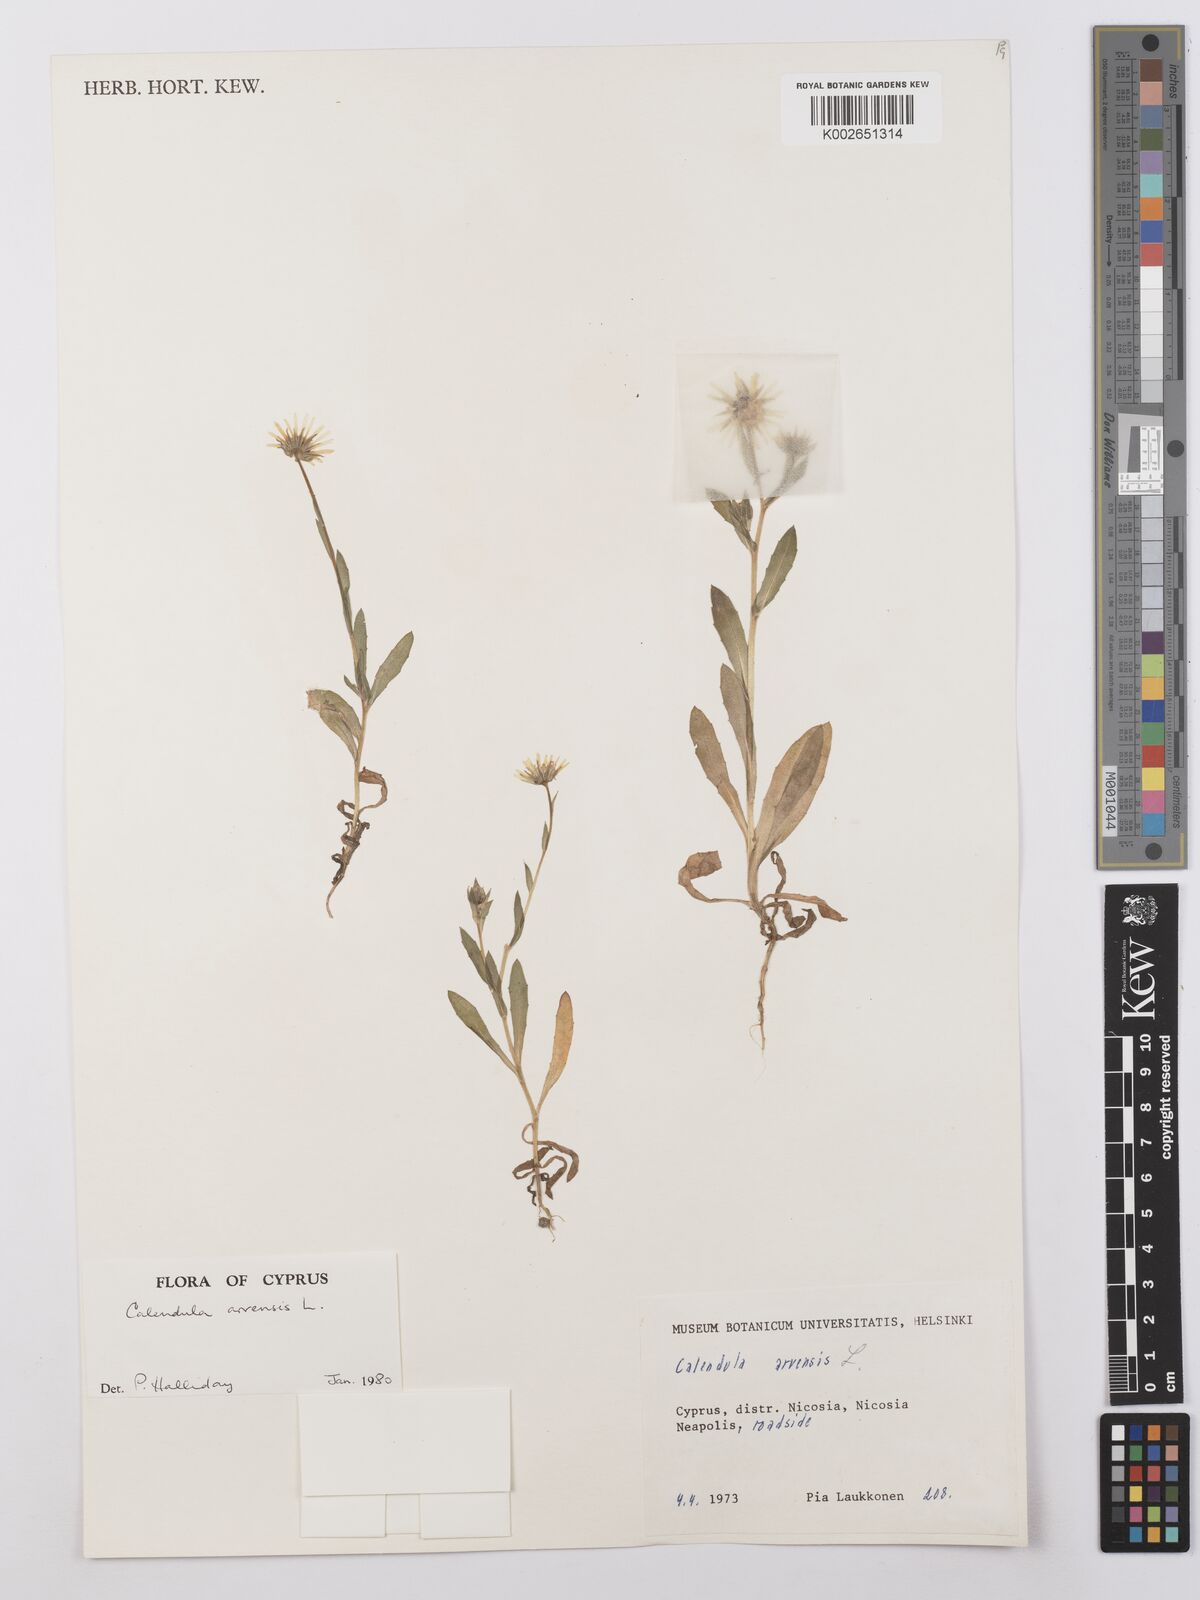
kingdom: Plantae
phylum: Tracheophyta
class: Magnoliopsida
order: Asterales
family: Asteraceae
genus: Calendula
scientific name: Calendula arvensis
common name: Field marigold
